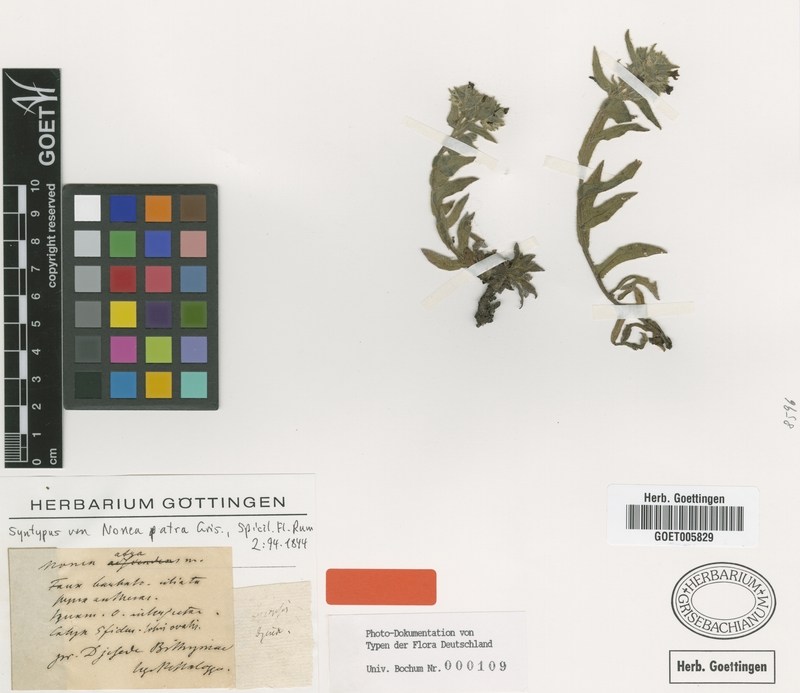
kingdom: Plantae
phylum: Tracheophyta
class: Magnoliopsida
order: Boraginales
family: Boraginaceae
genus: Nonea
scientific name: Nonea atra
